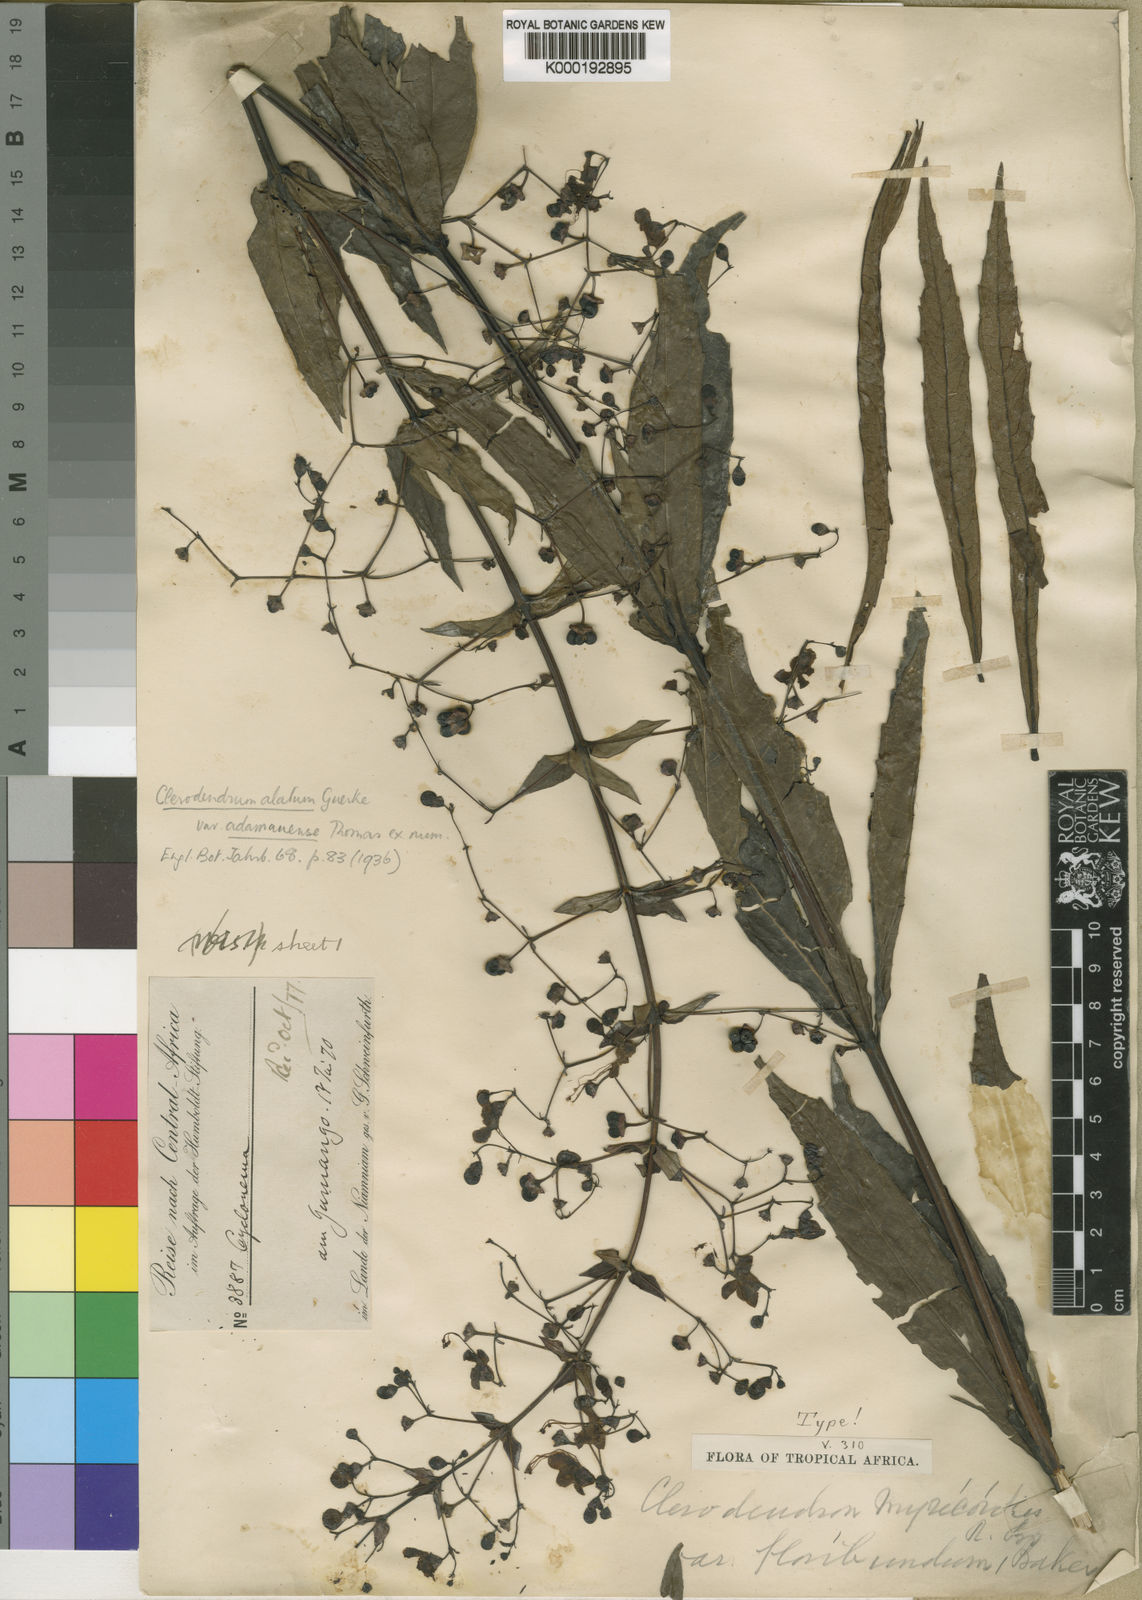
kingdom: Plantae
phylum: Tracheophyta
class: Magnoliopsida
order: Lamiales
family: Lamiaceae
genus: Clerodendrum
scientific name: Clerodendrum
